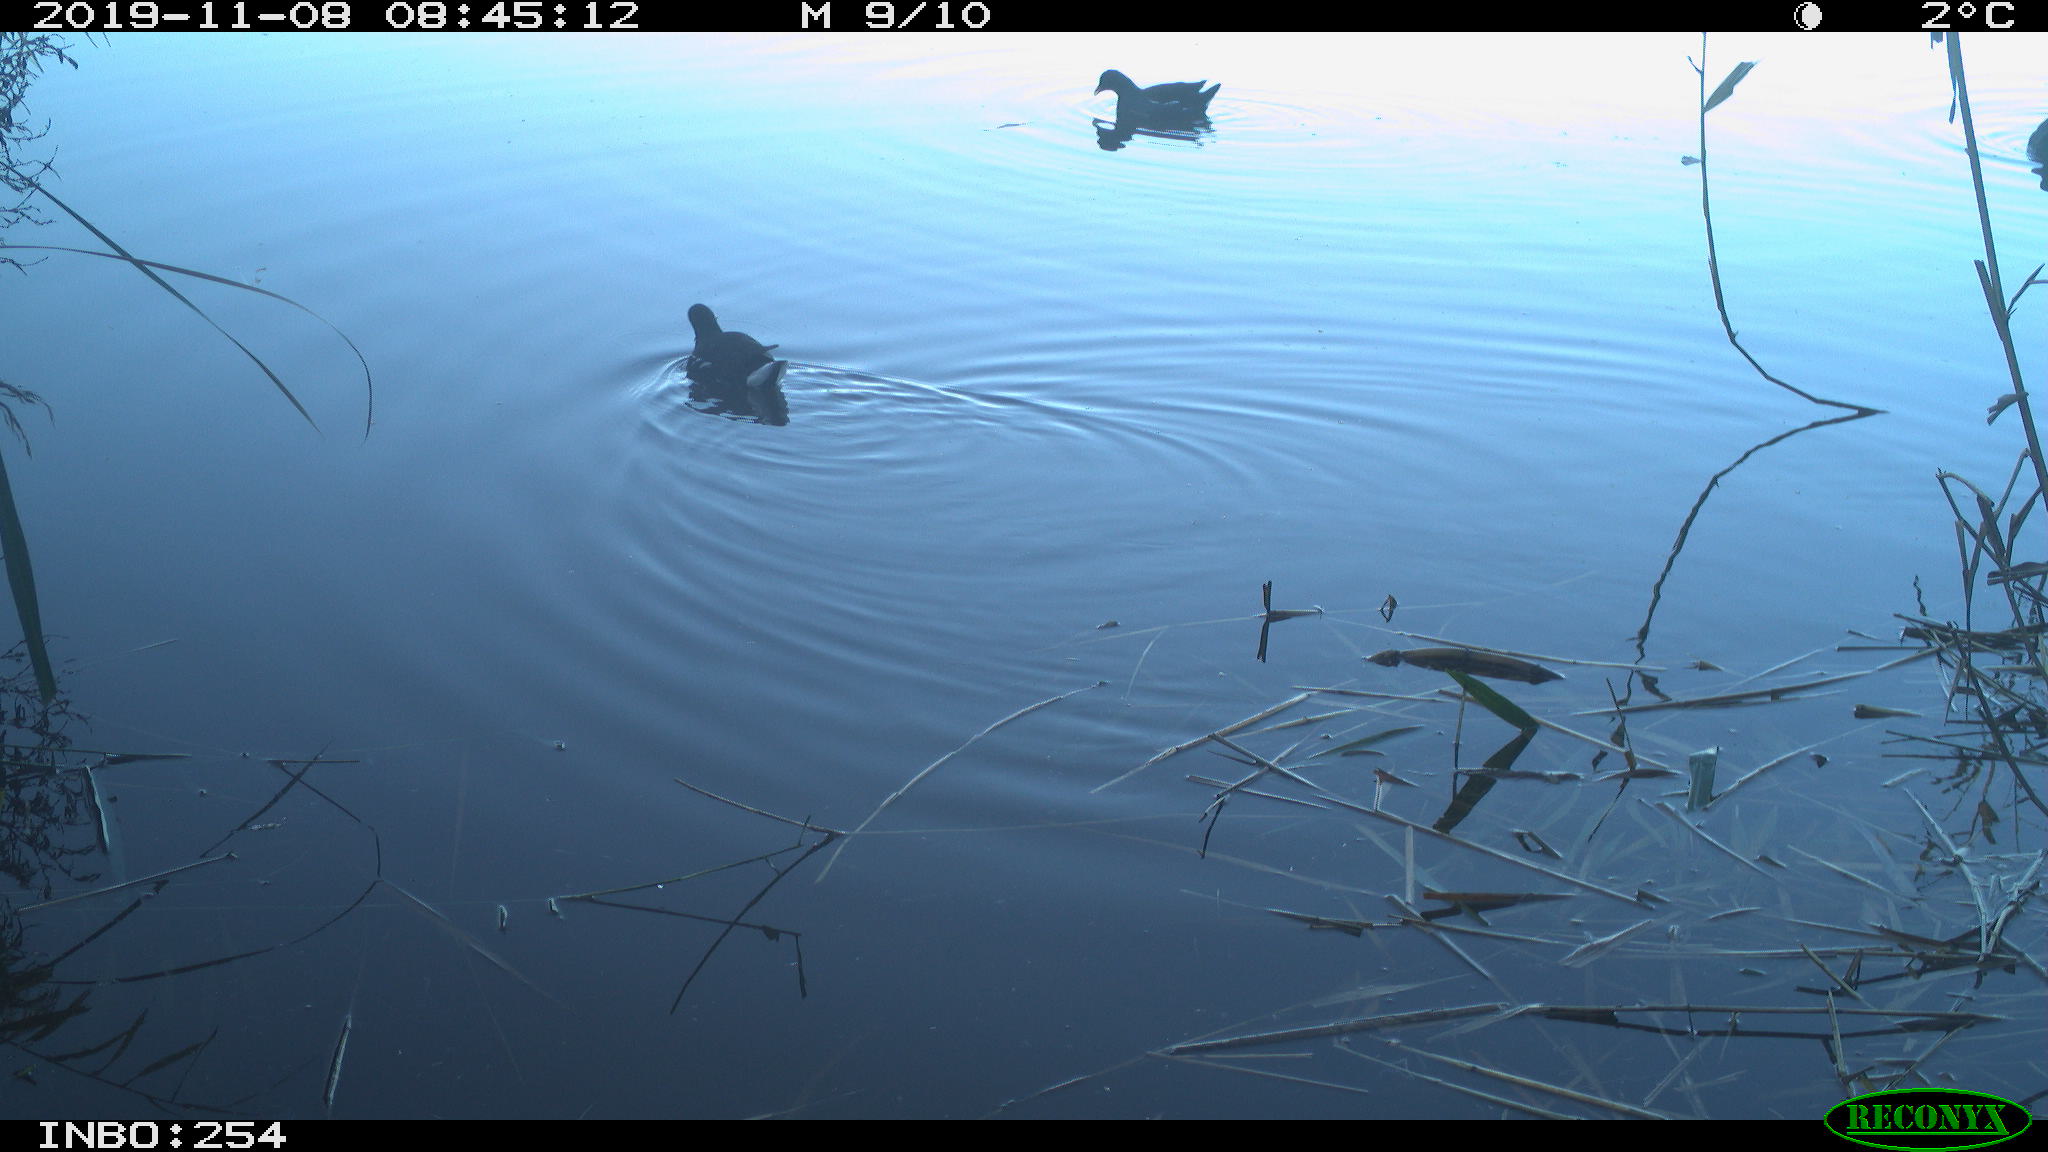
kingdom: Animalia
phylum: Chordata
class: Aves
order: Gruiformes
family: Rallidae
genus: Gallinula
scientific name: Gallinula chloropus
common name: Common moorhen
